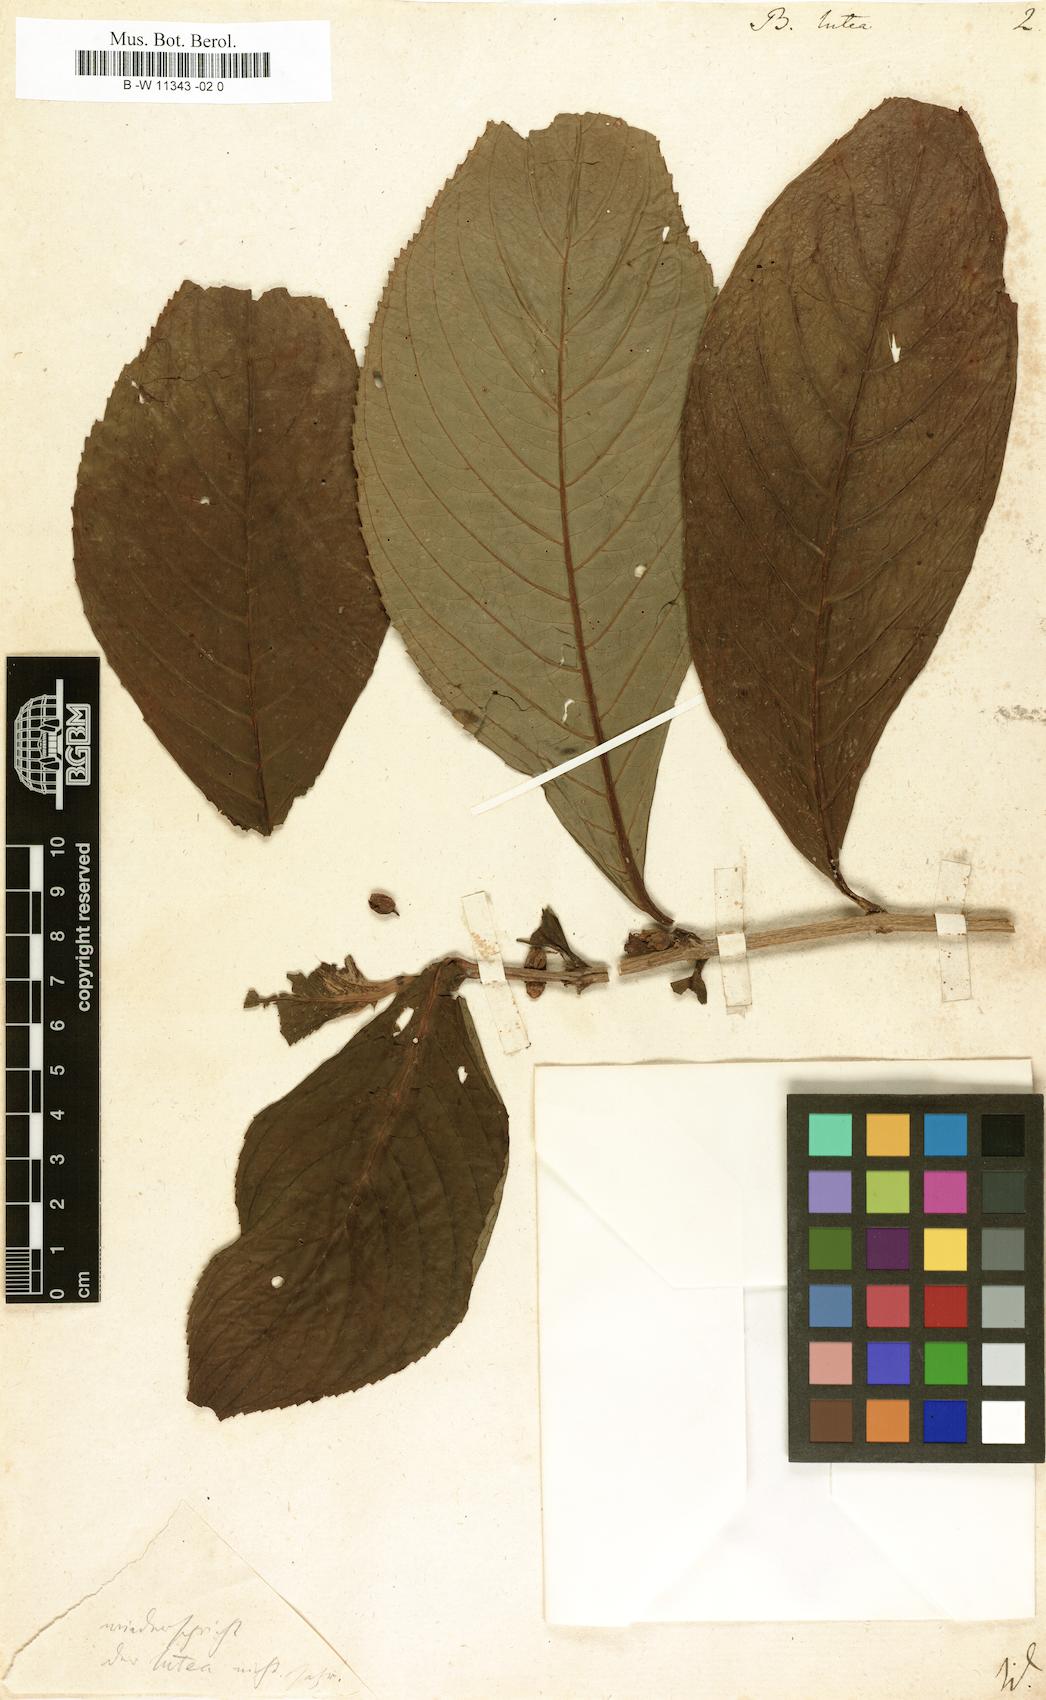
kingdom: Plantae
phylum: Tracheophyta
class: Magnoliopsida
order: Lamiales
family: Gesneriaceae
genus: Besleria
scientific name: Besleria lutea
